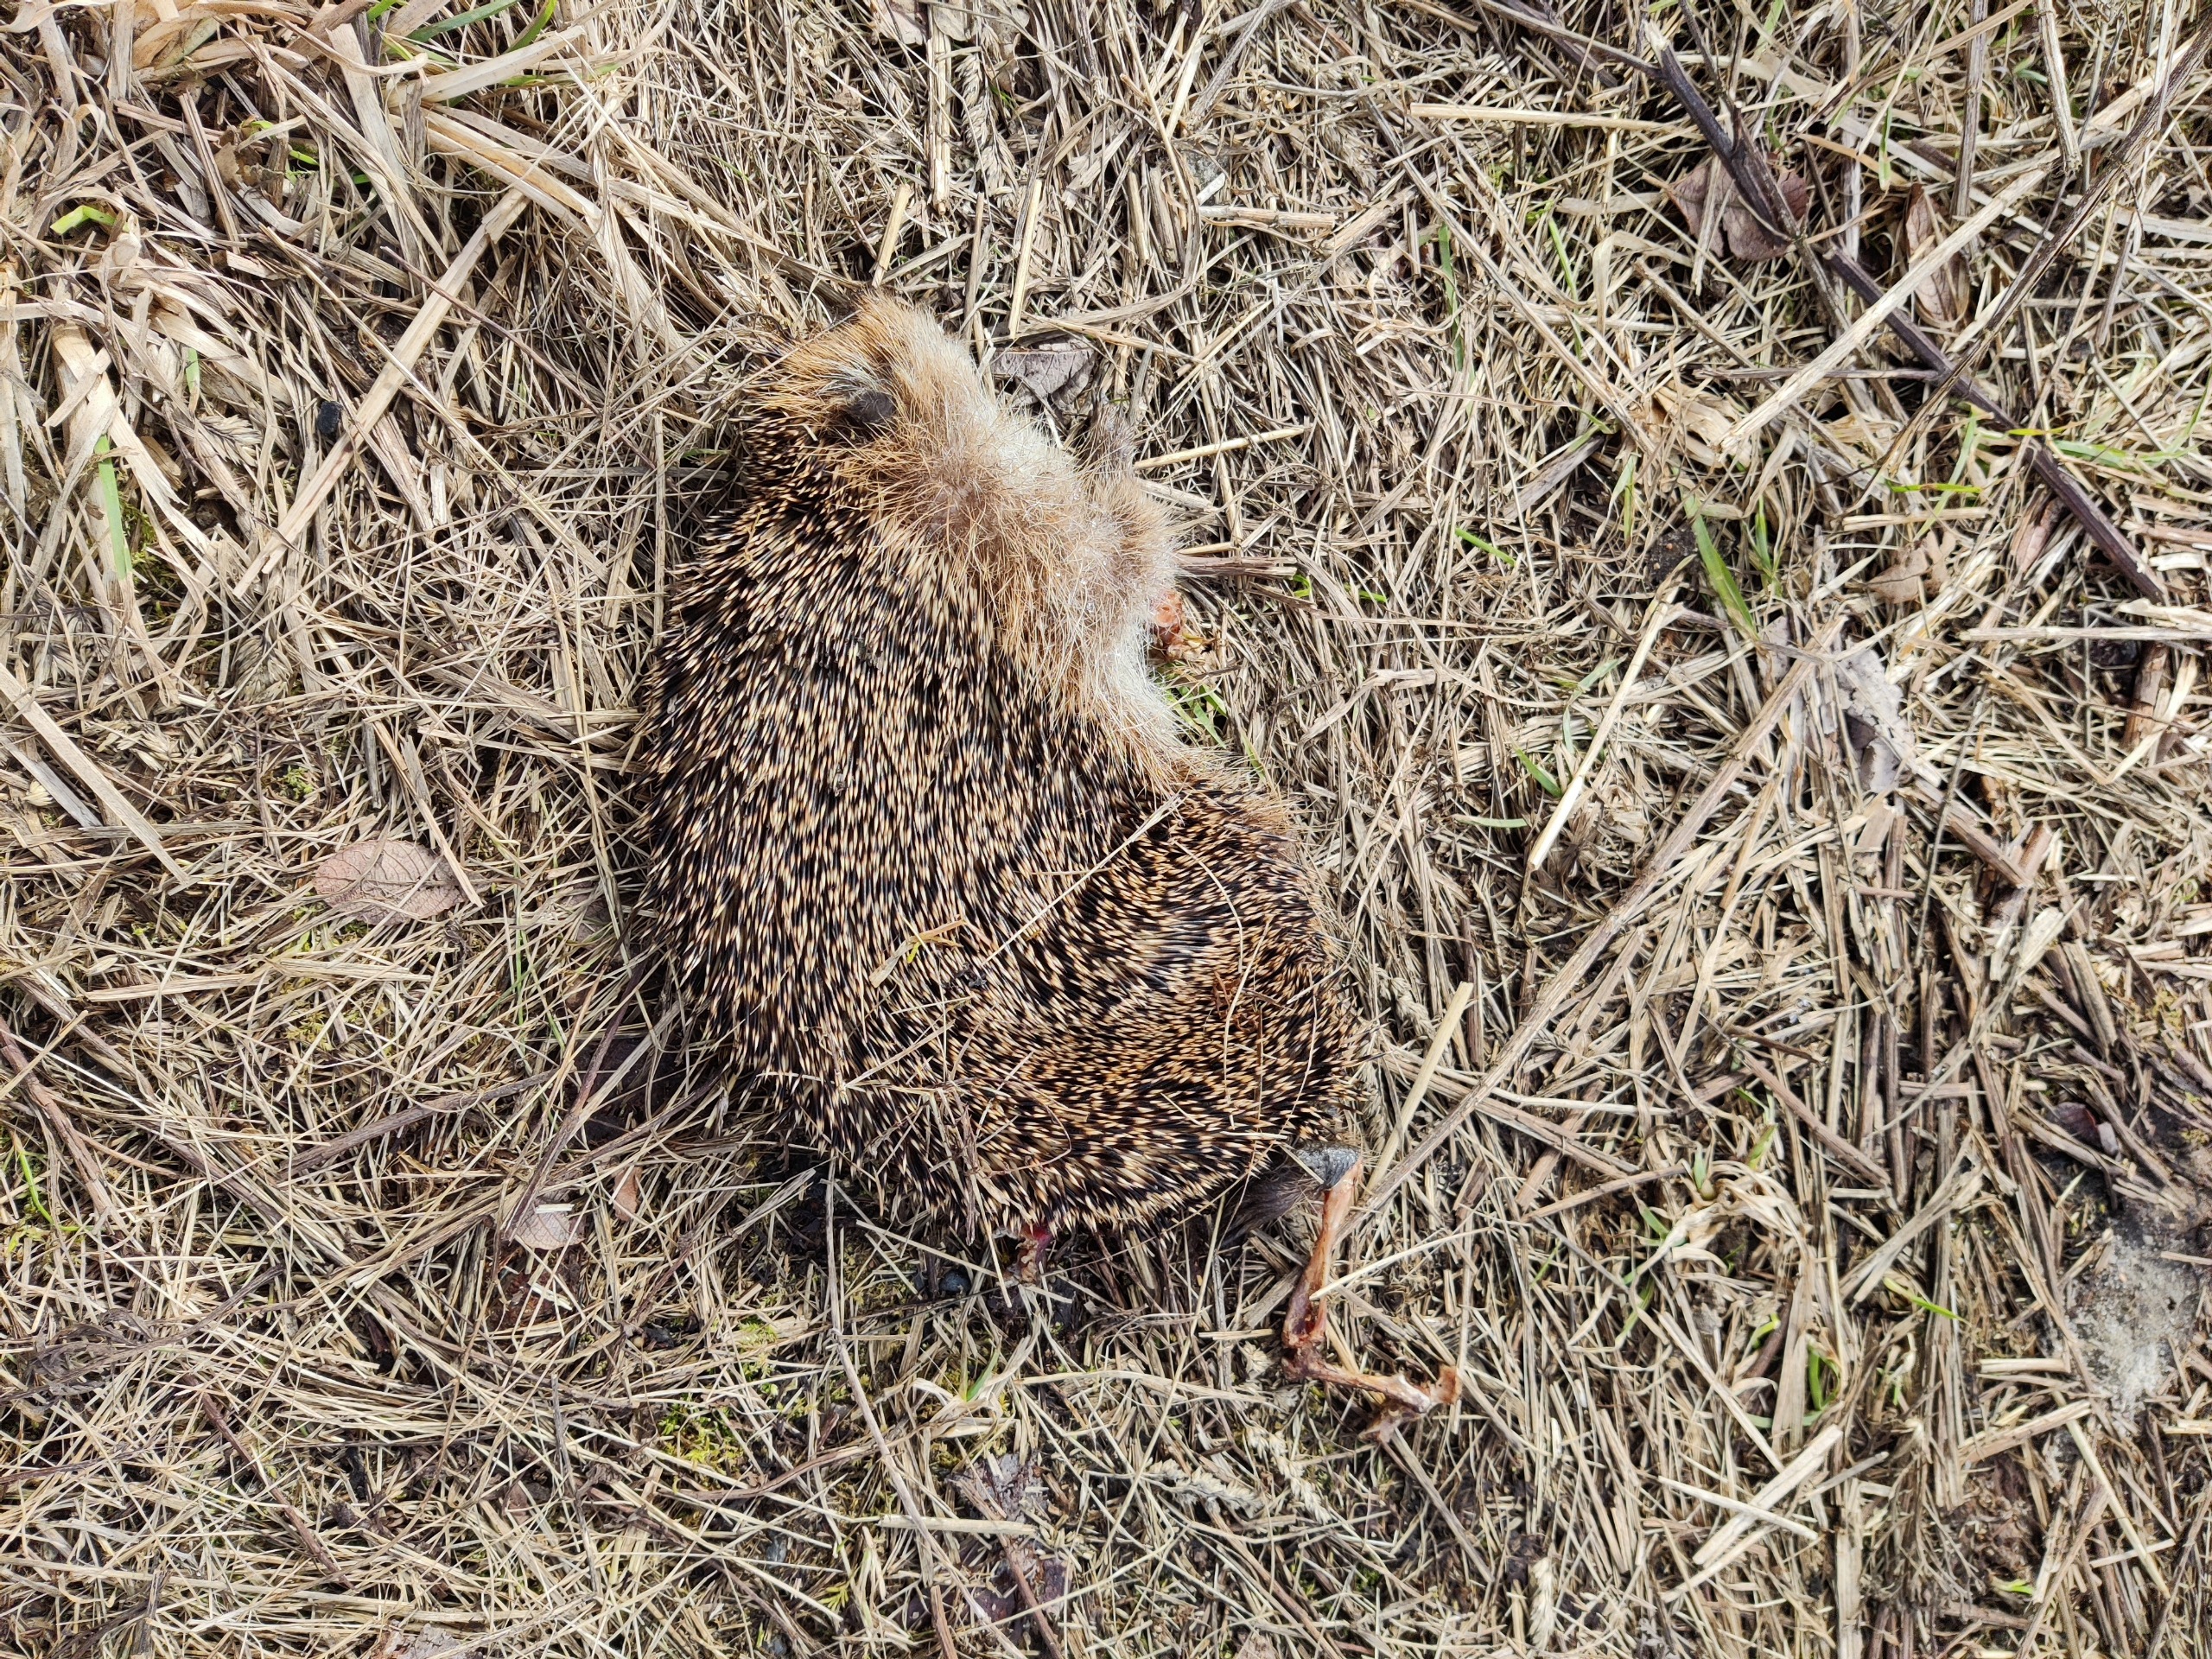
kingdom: Animalia
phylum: Chordata
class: Mammalia
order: Erinaceomorpha
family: Erinaceidae
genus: Erinaceus
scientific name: Erinaceus europaeus
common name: Pindsvin
